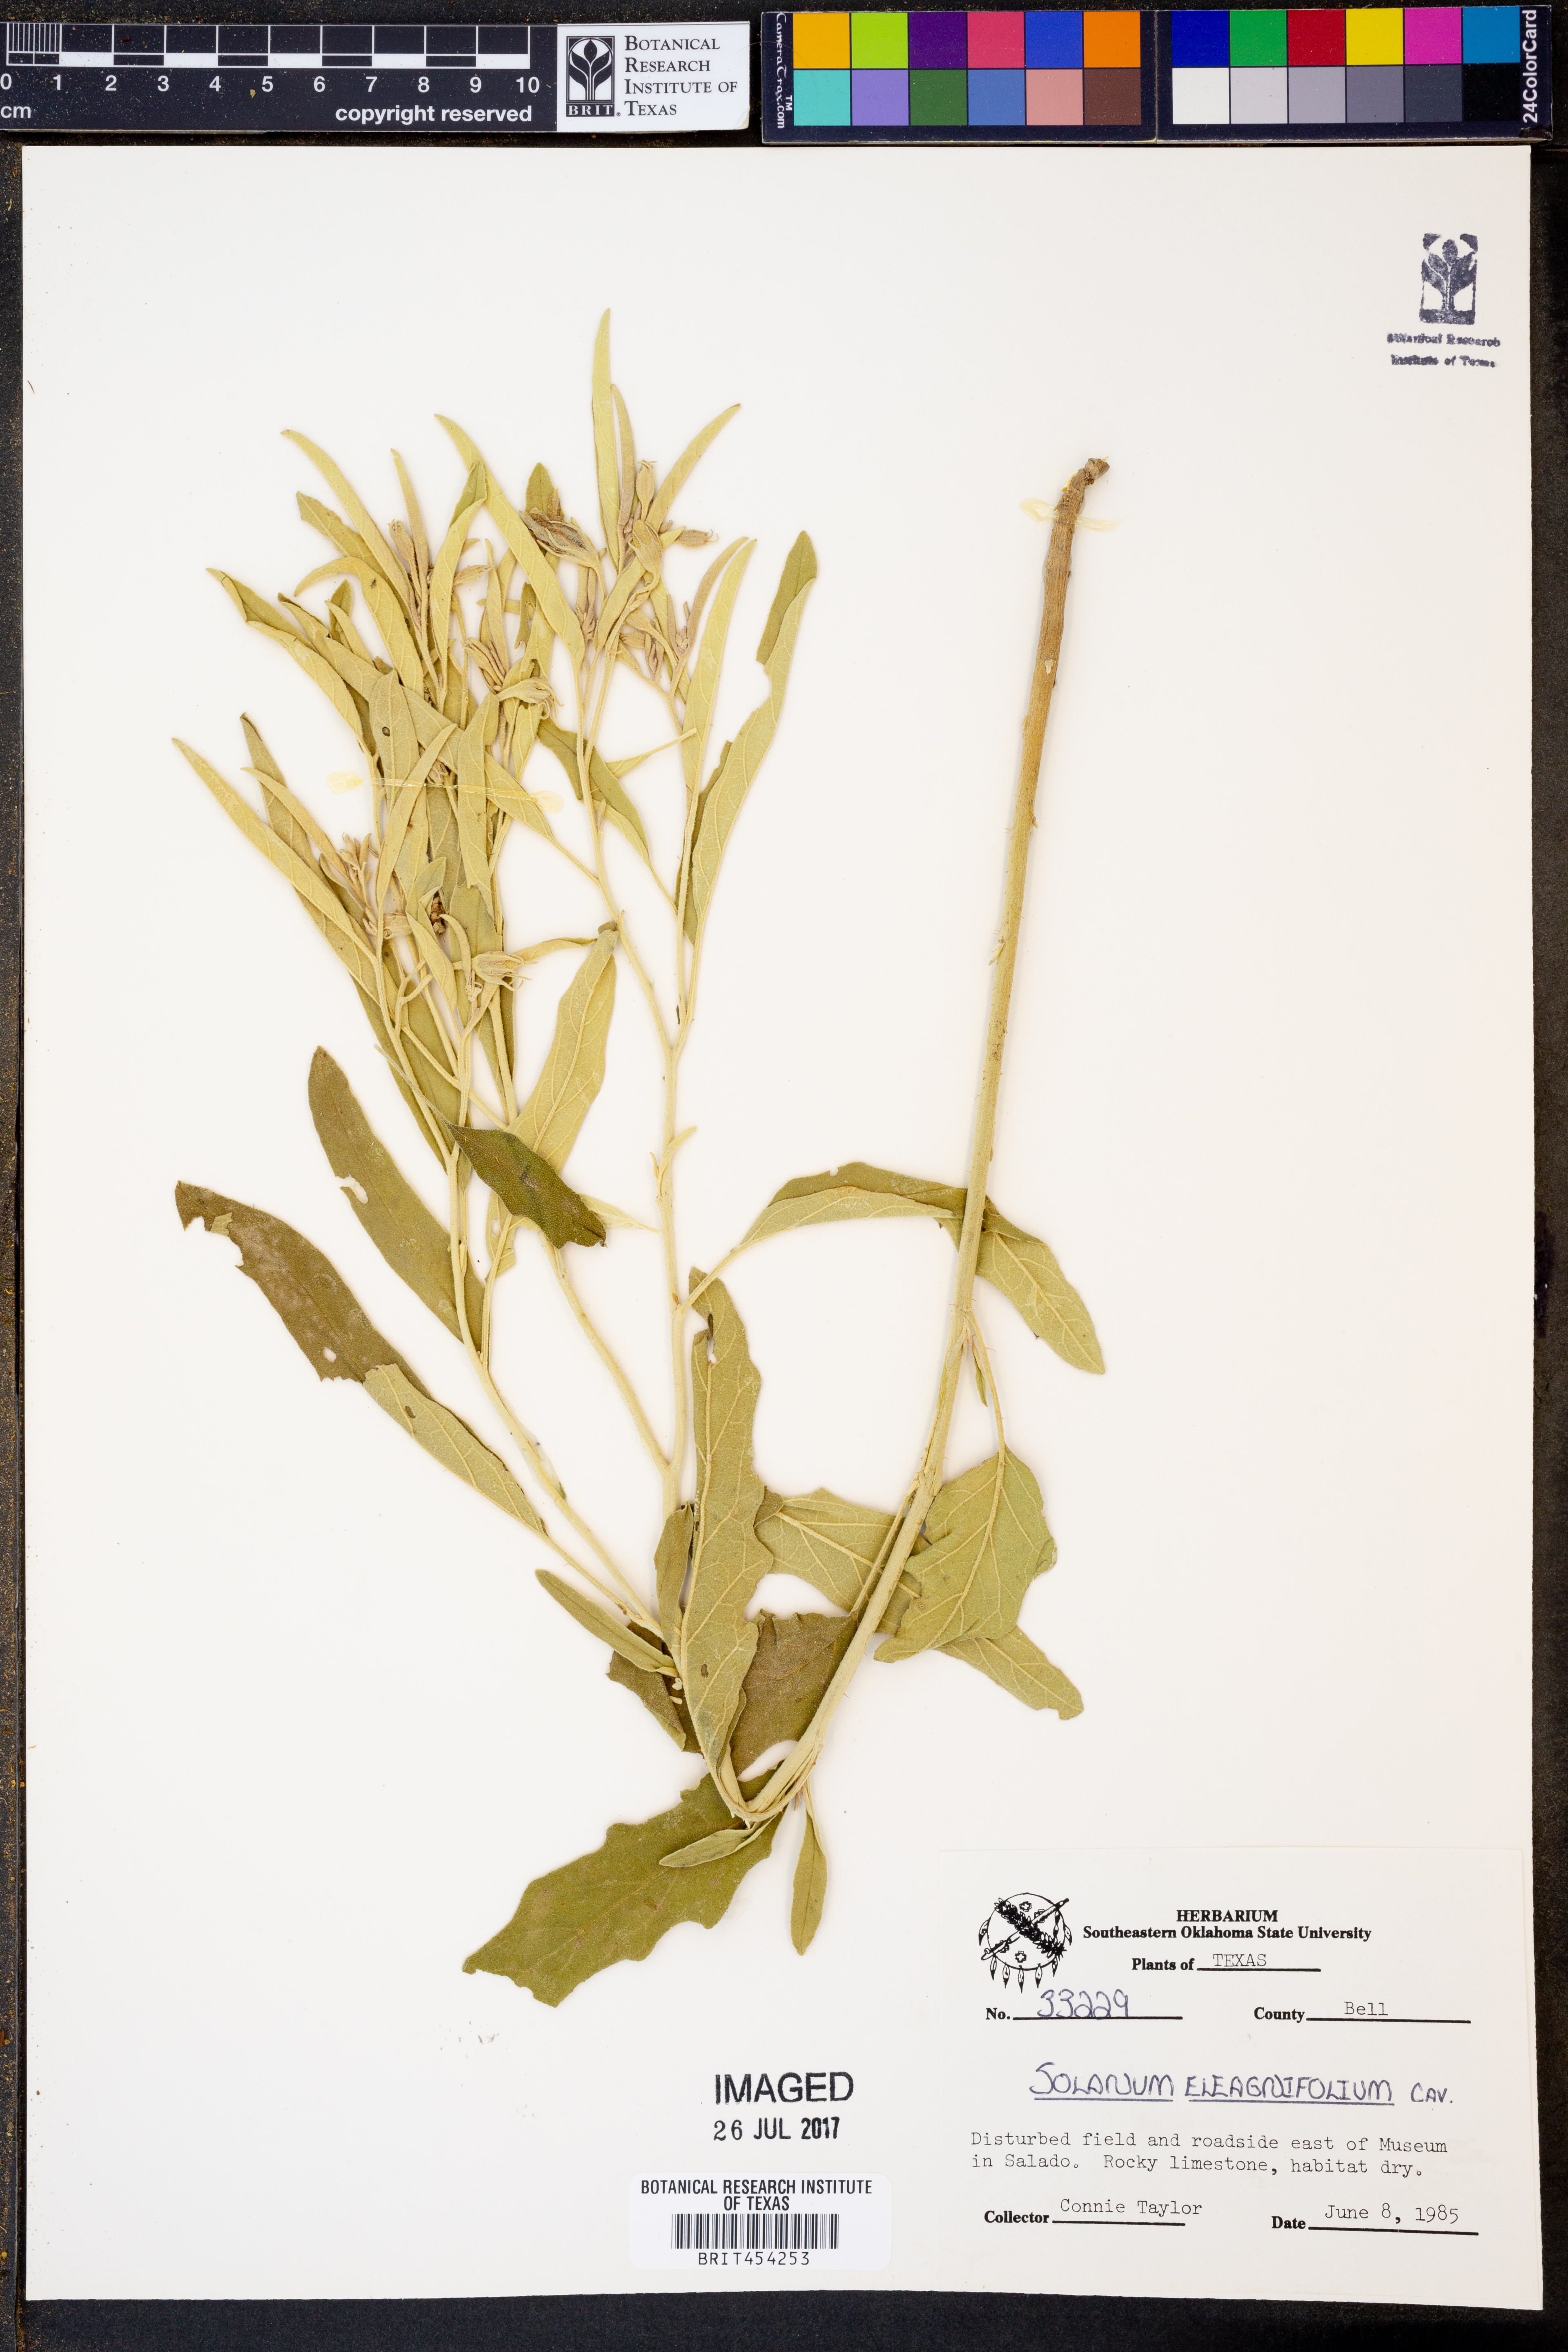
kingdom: Plantae
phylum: Tracheophyta
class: Magnoliopsida
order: Solanales
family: Solanaceae
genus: Solanum
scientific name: Solanum elaeagnifolium
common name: Silverleaf nightshade
